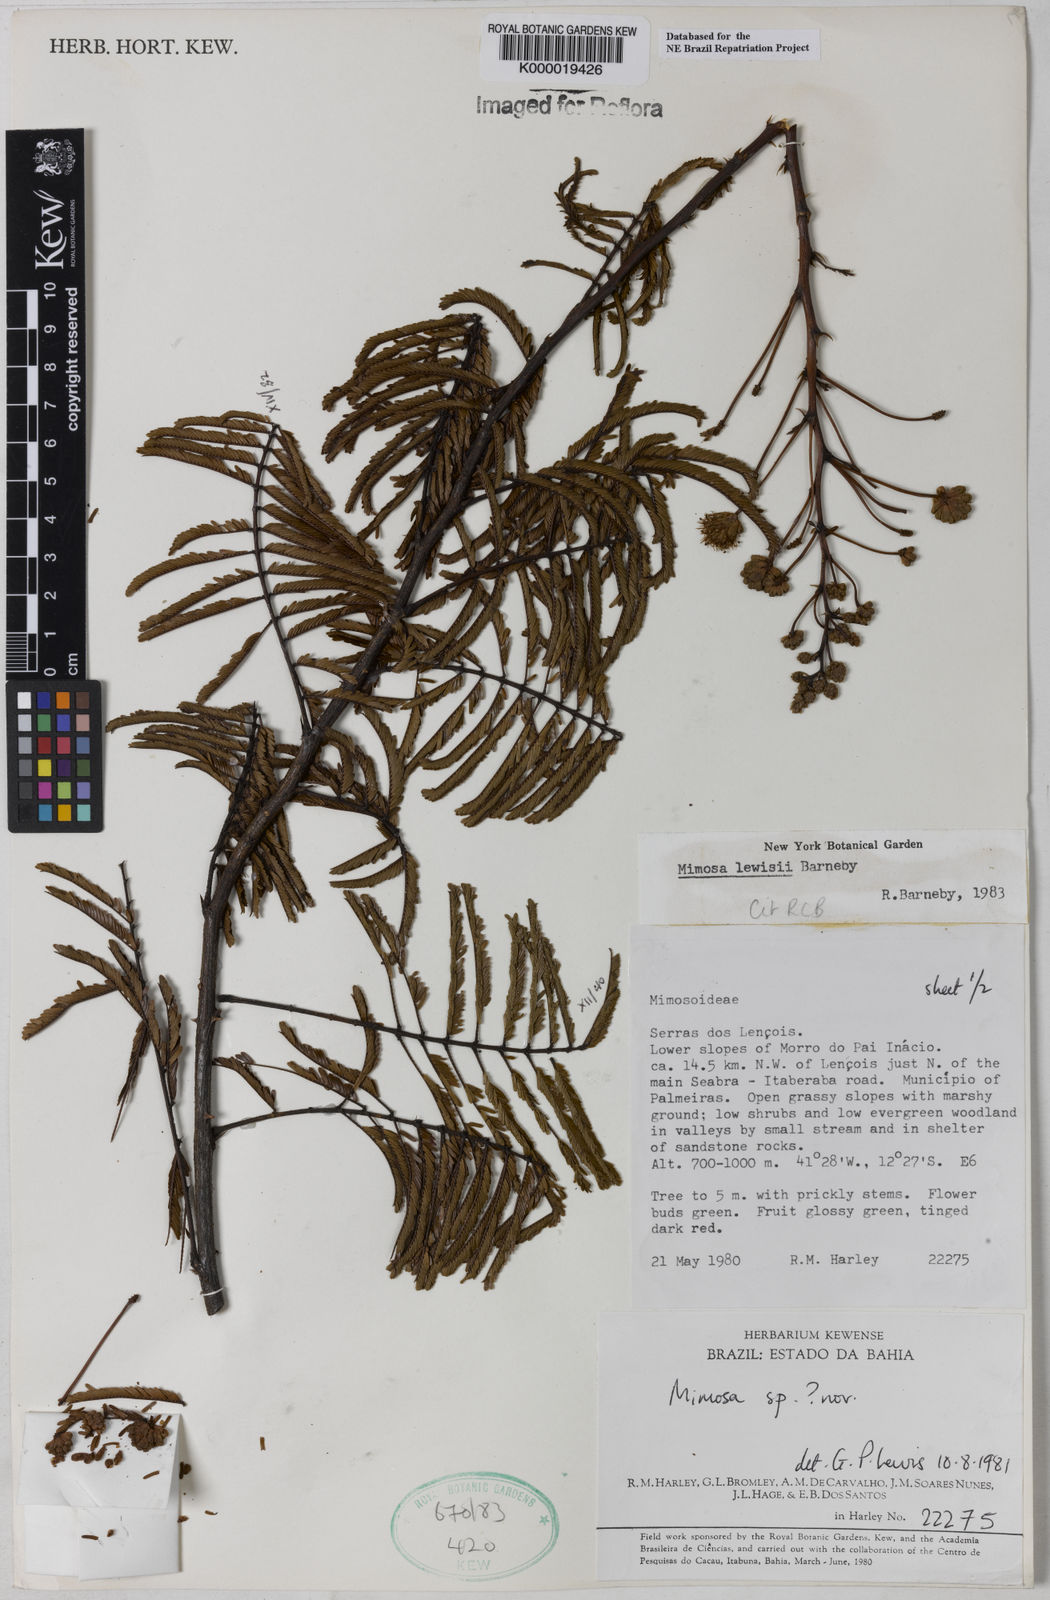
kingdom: Plantae
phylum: Tracheophyta
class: Magnoliopsida
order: Fabales
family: Fabaceae
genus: Mimosa
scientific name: Mimosa lewisii
